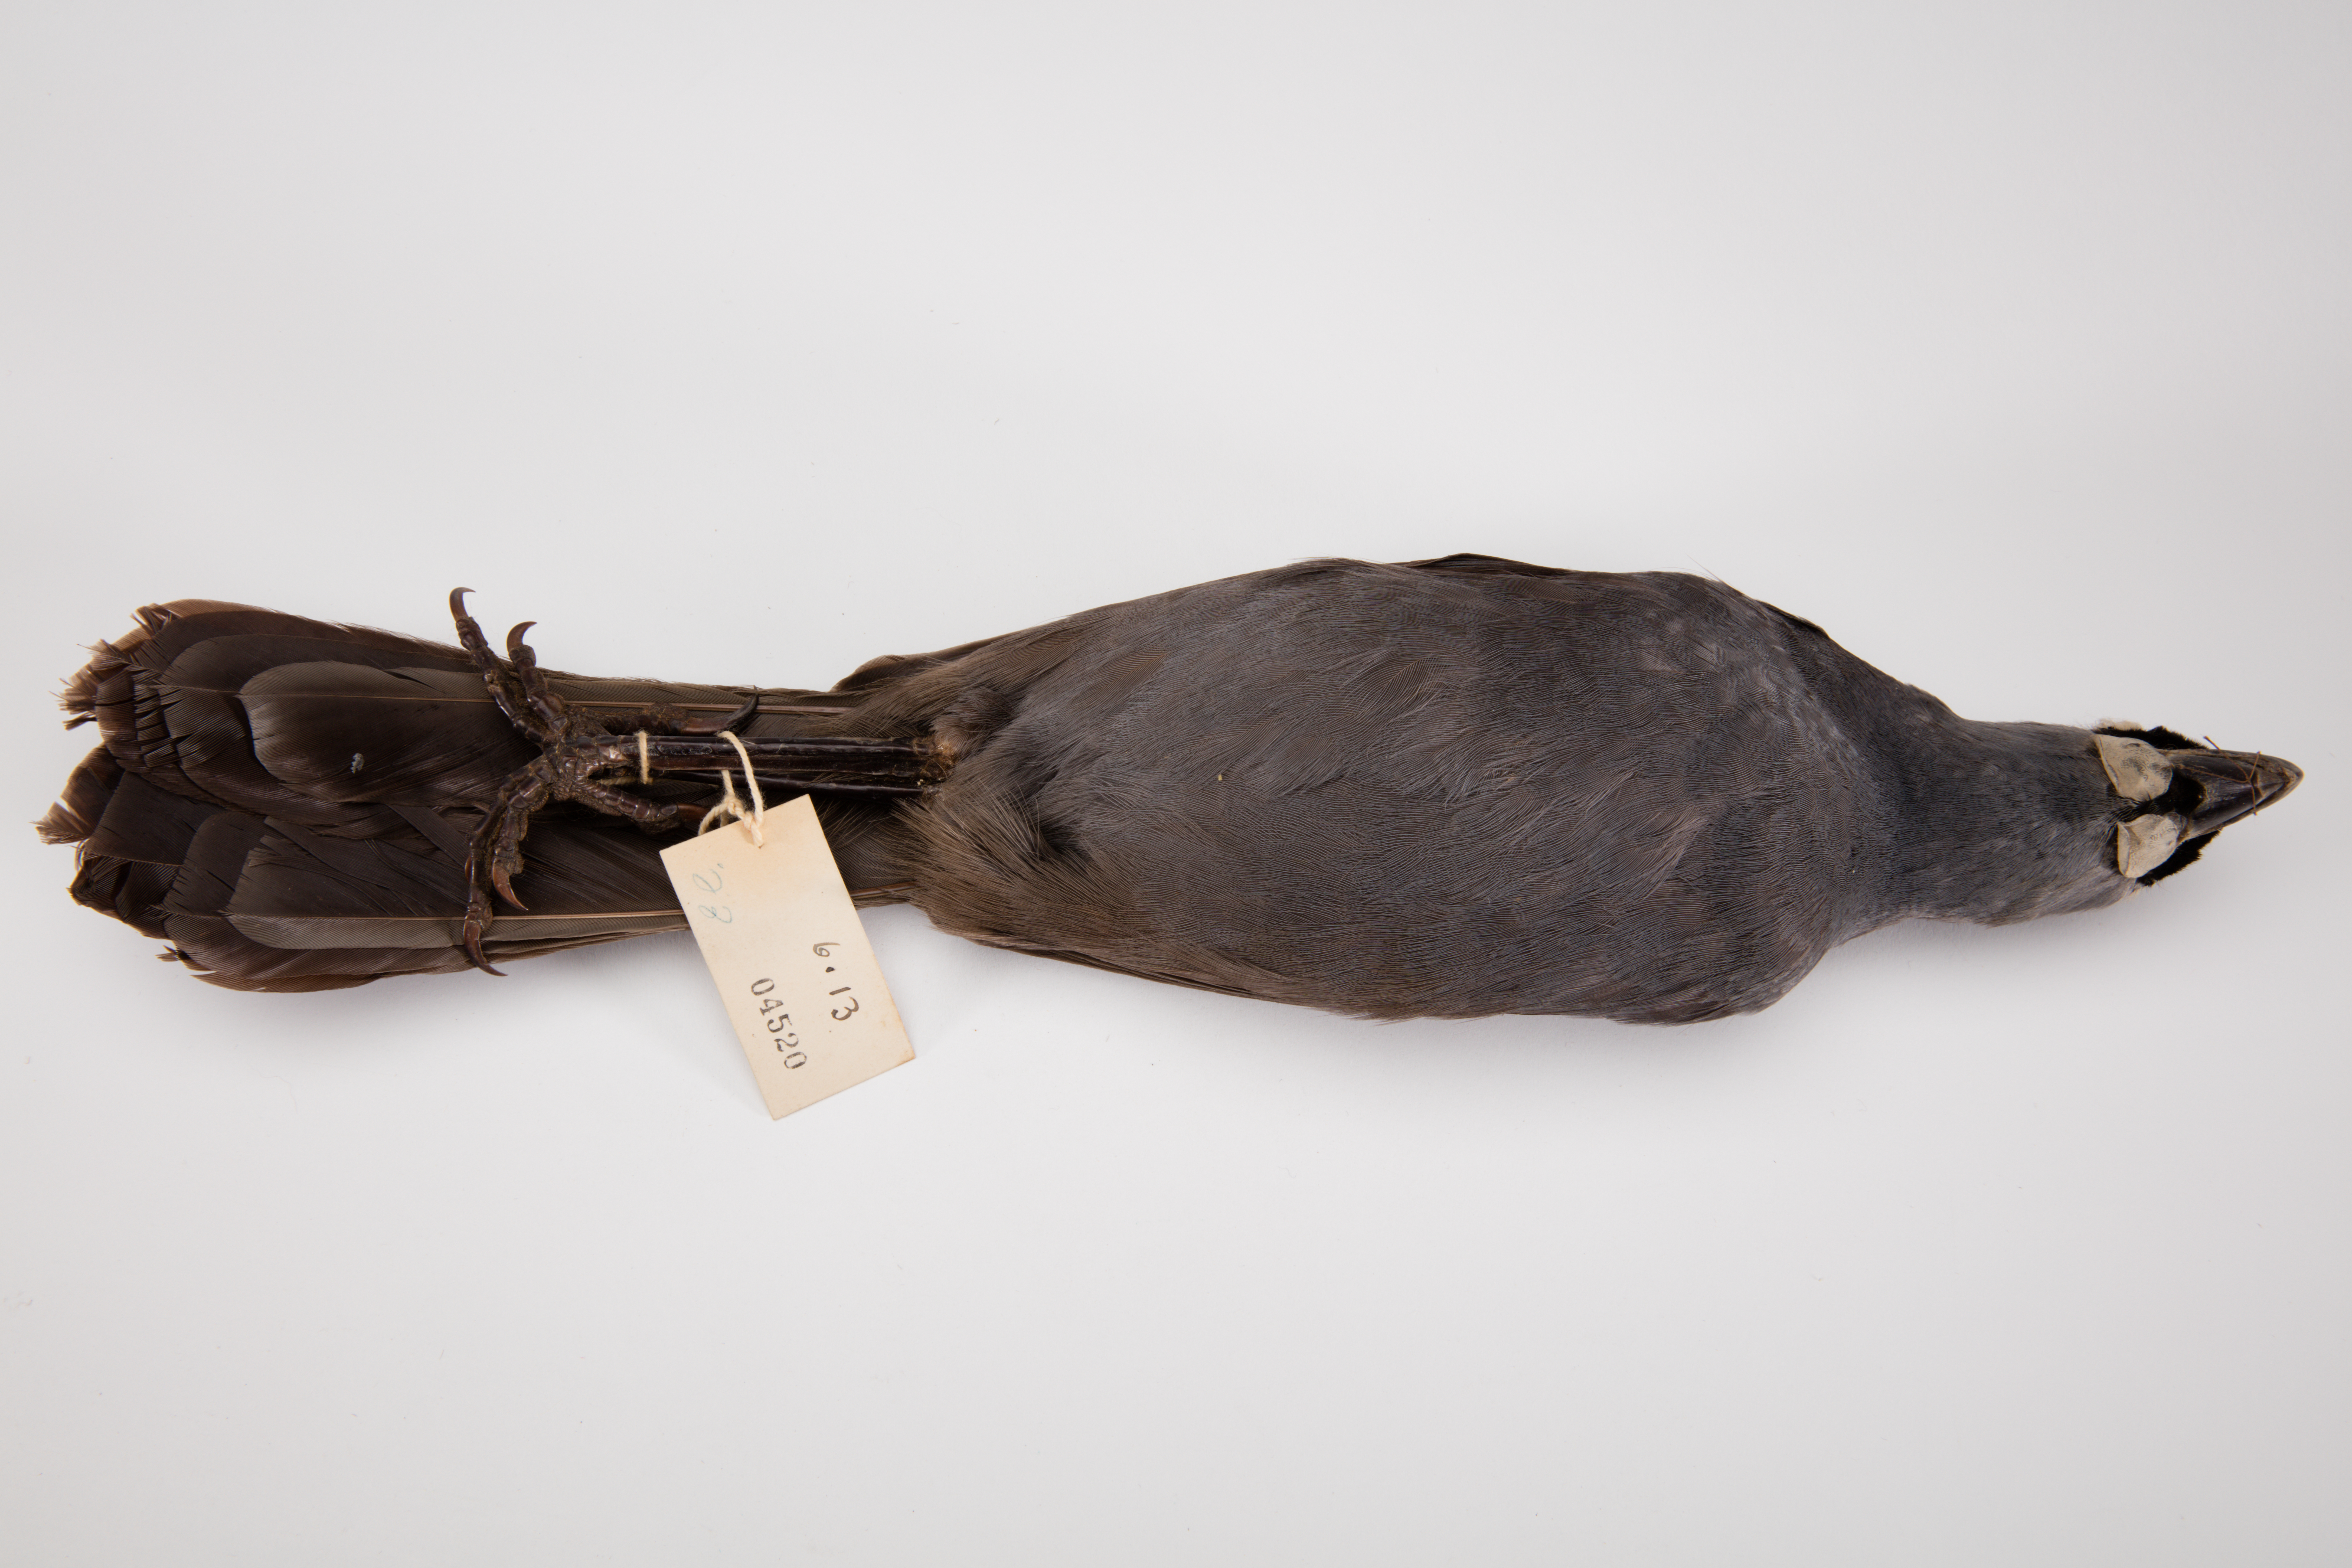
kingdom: Animalia
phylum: Chordata
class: Aves
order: Passeriformes
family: Callaeatidae
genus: Callaeas
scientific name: Callaeas cinereus
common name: South island kokako
